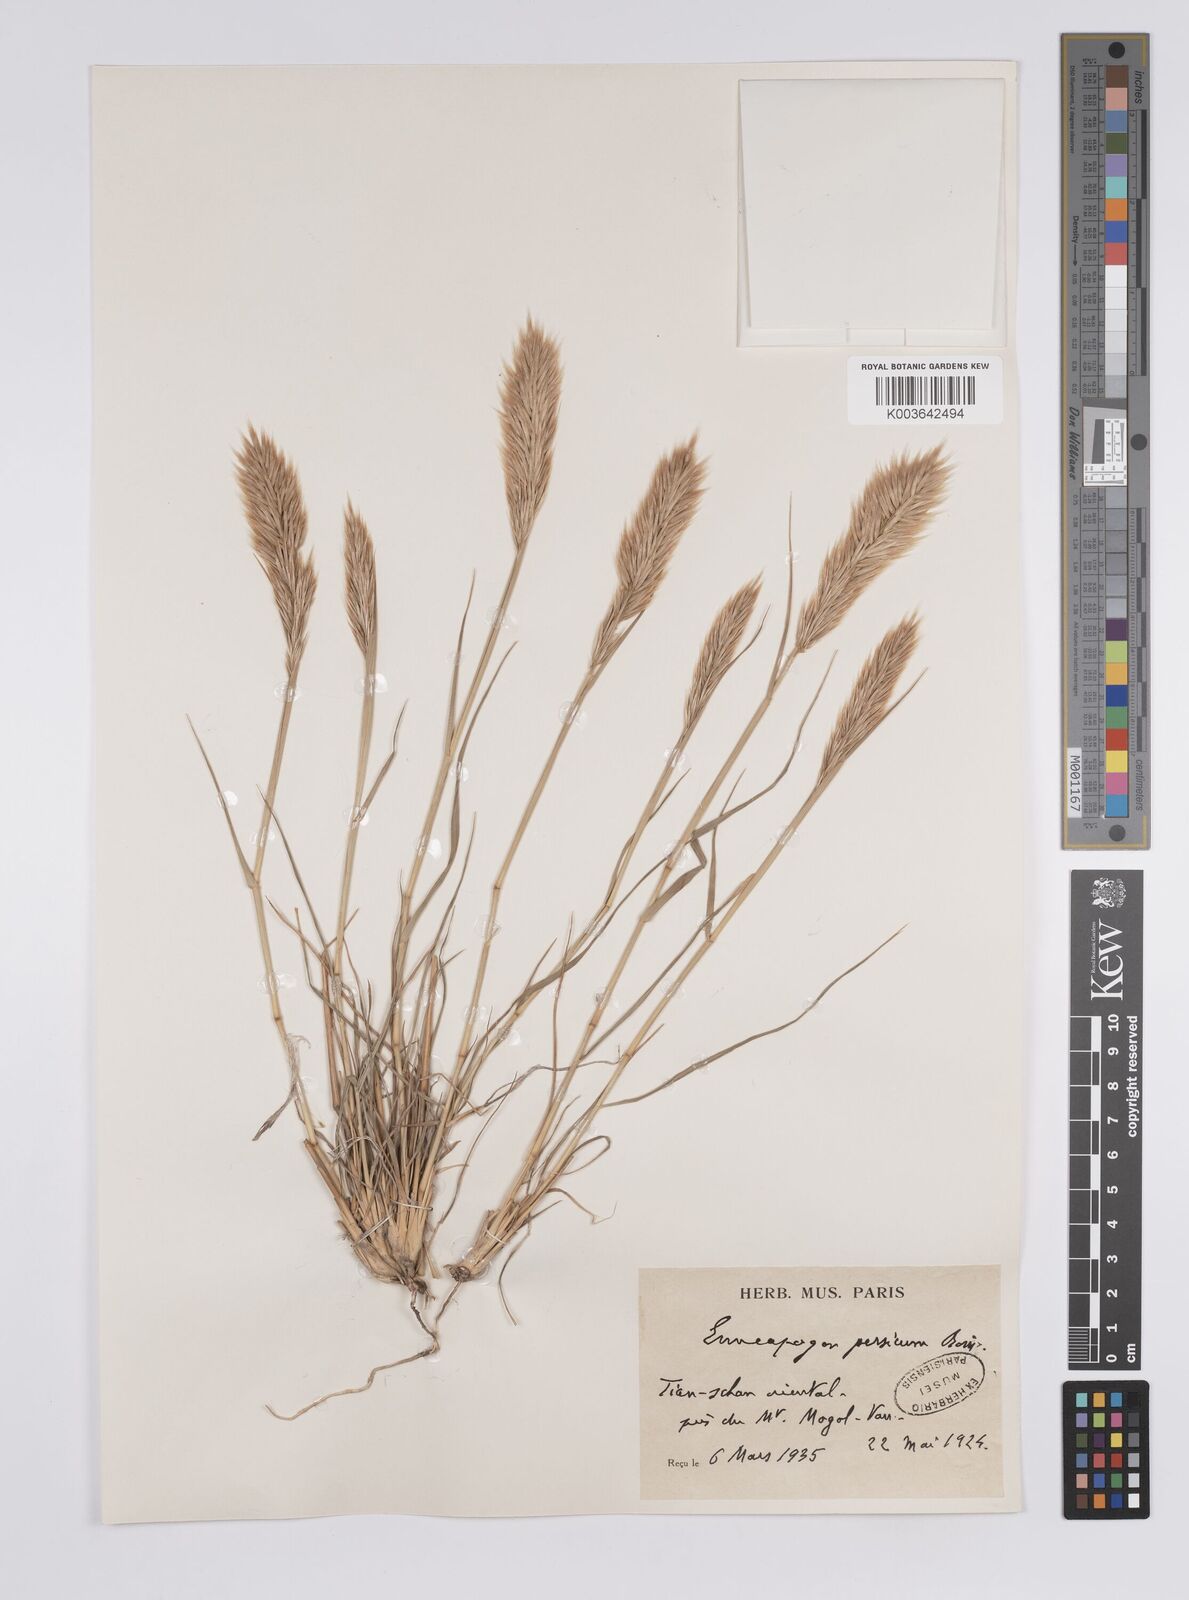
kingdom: Plantae
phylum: Tracheophyta
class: Liliopsida
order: Poales
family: Poaceae
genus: Enneapogon
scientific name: Enneapogon persicus
